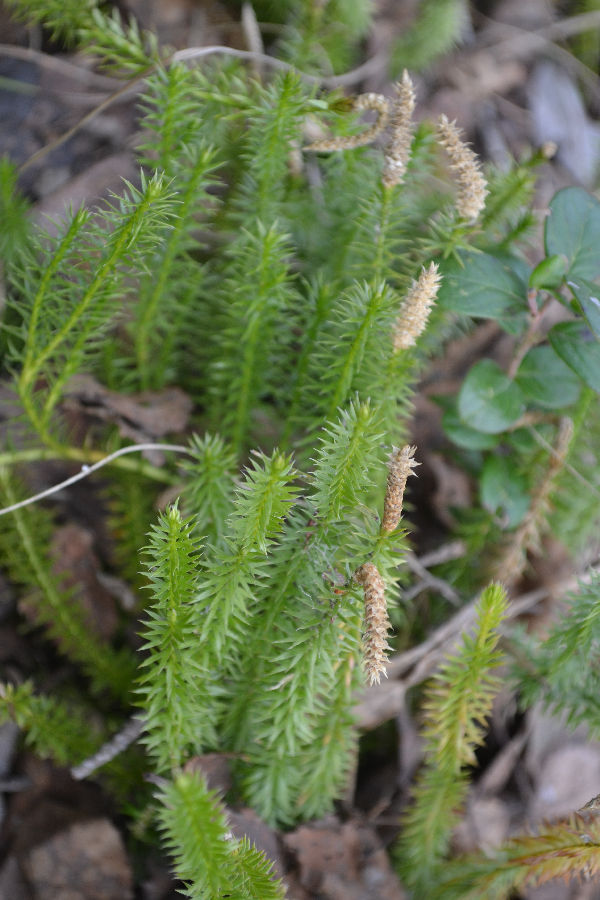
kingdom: Plantae
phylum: Tracheophyta
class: Lycopodiopsida
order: Lycopodiales
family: Lycopodiaceae
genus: Spinulum
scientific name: Spinulum annotinum
